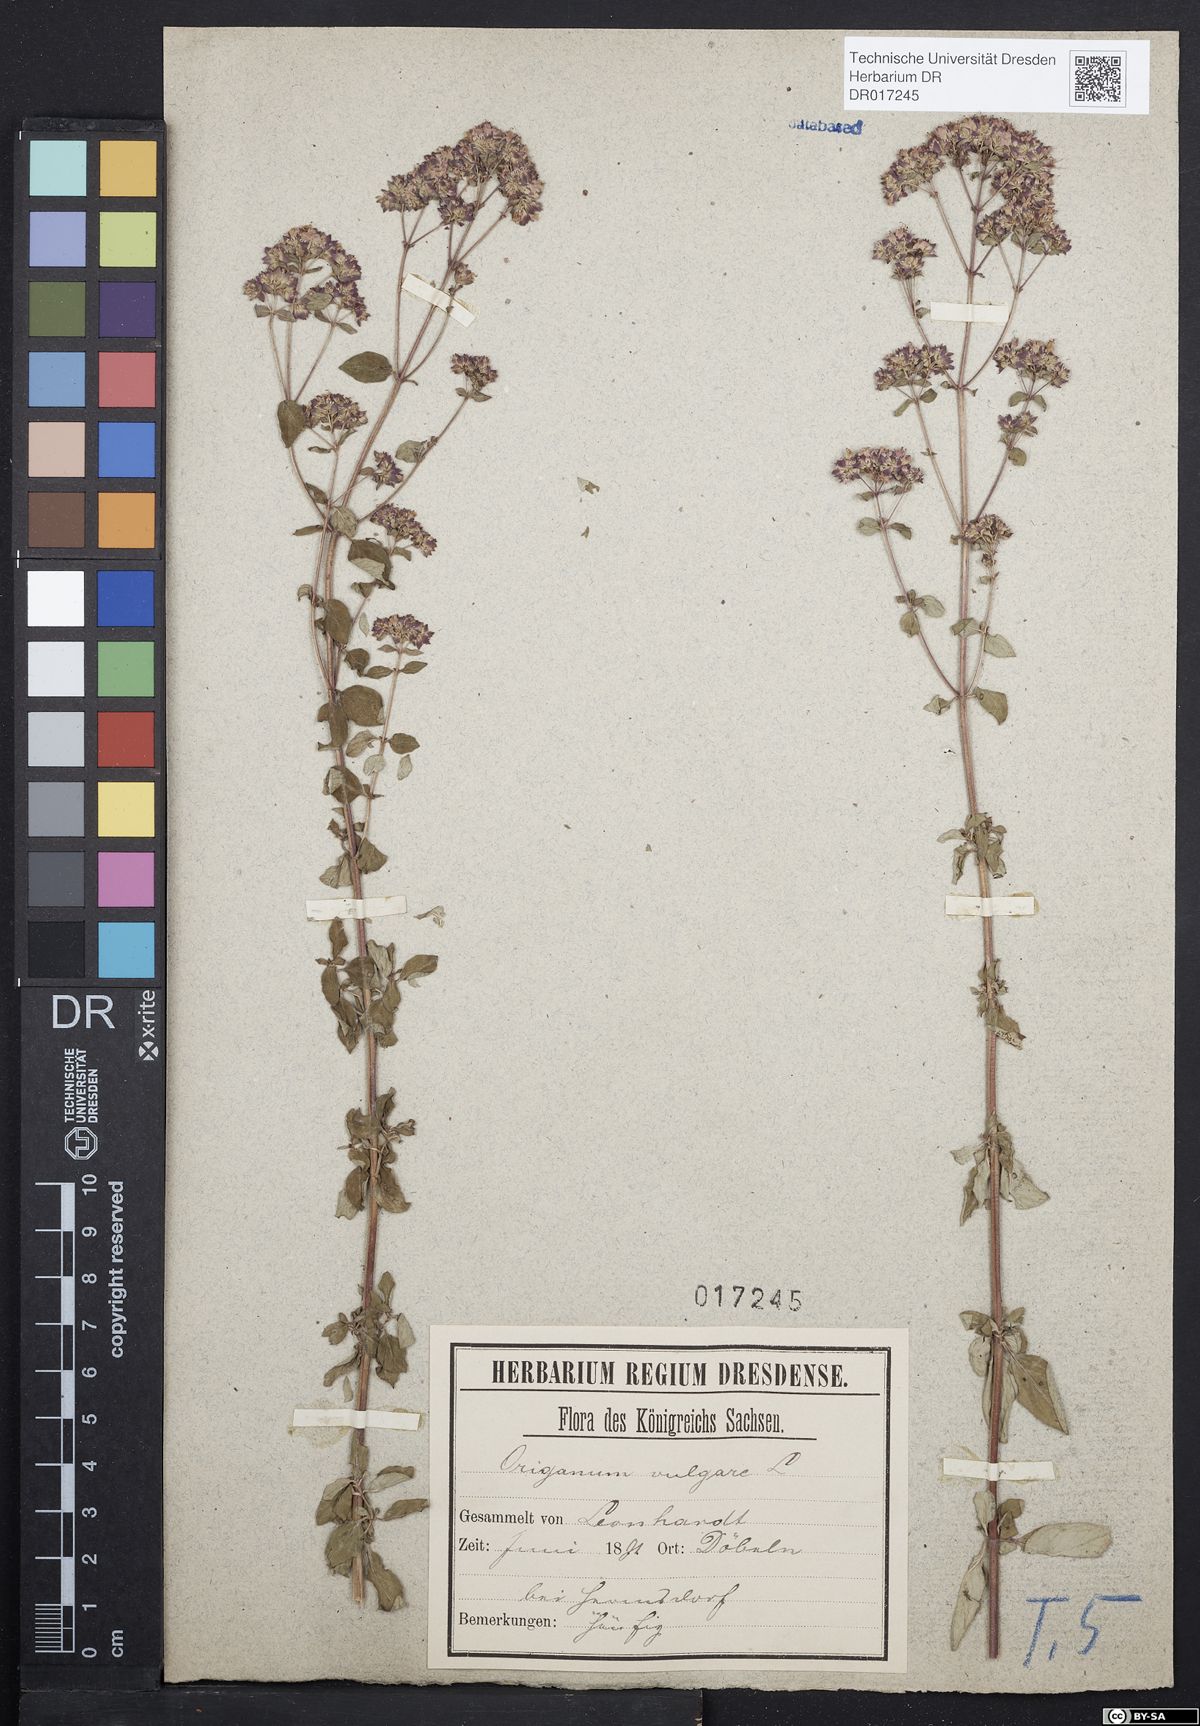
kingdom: Plantae
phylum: Tracheophyta
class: Magnoliopsida
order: Lamiales
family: Lamiaceae
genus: Origanum
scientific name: Origanum vulgare
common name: Wild marjoram
